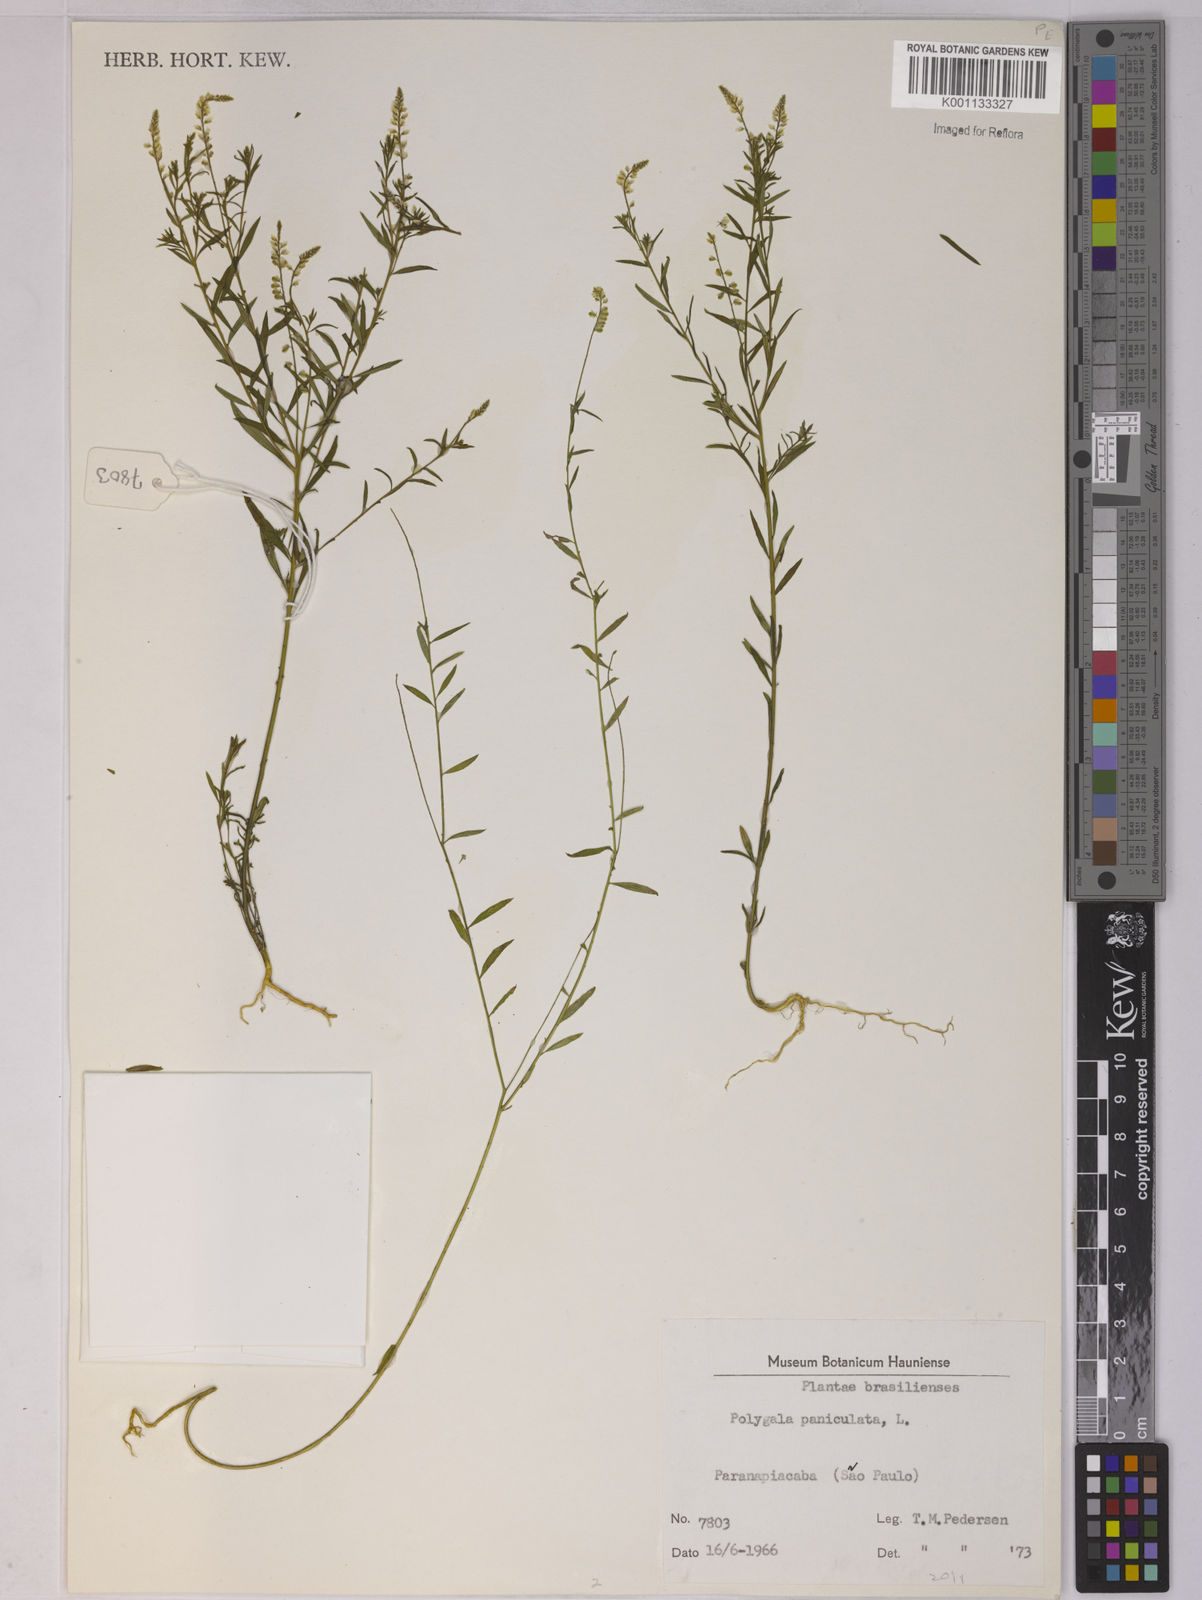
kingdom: Plantae
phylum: Tracheophyta
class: Magnoliopsida
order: Fabales
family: Polygalaceae
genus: Polygala
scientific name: Polygala paniculata
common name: Orosne
